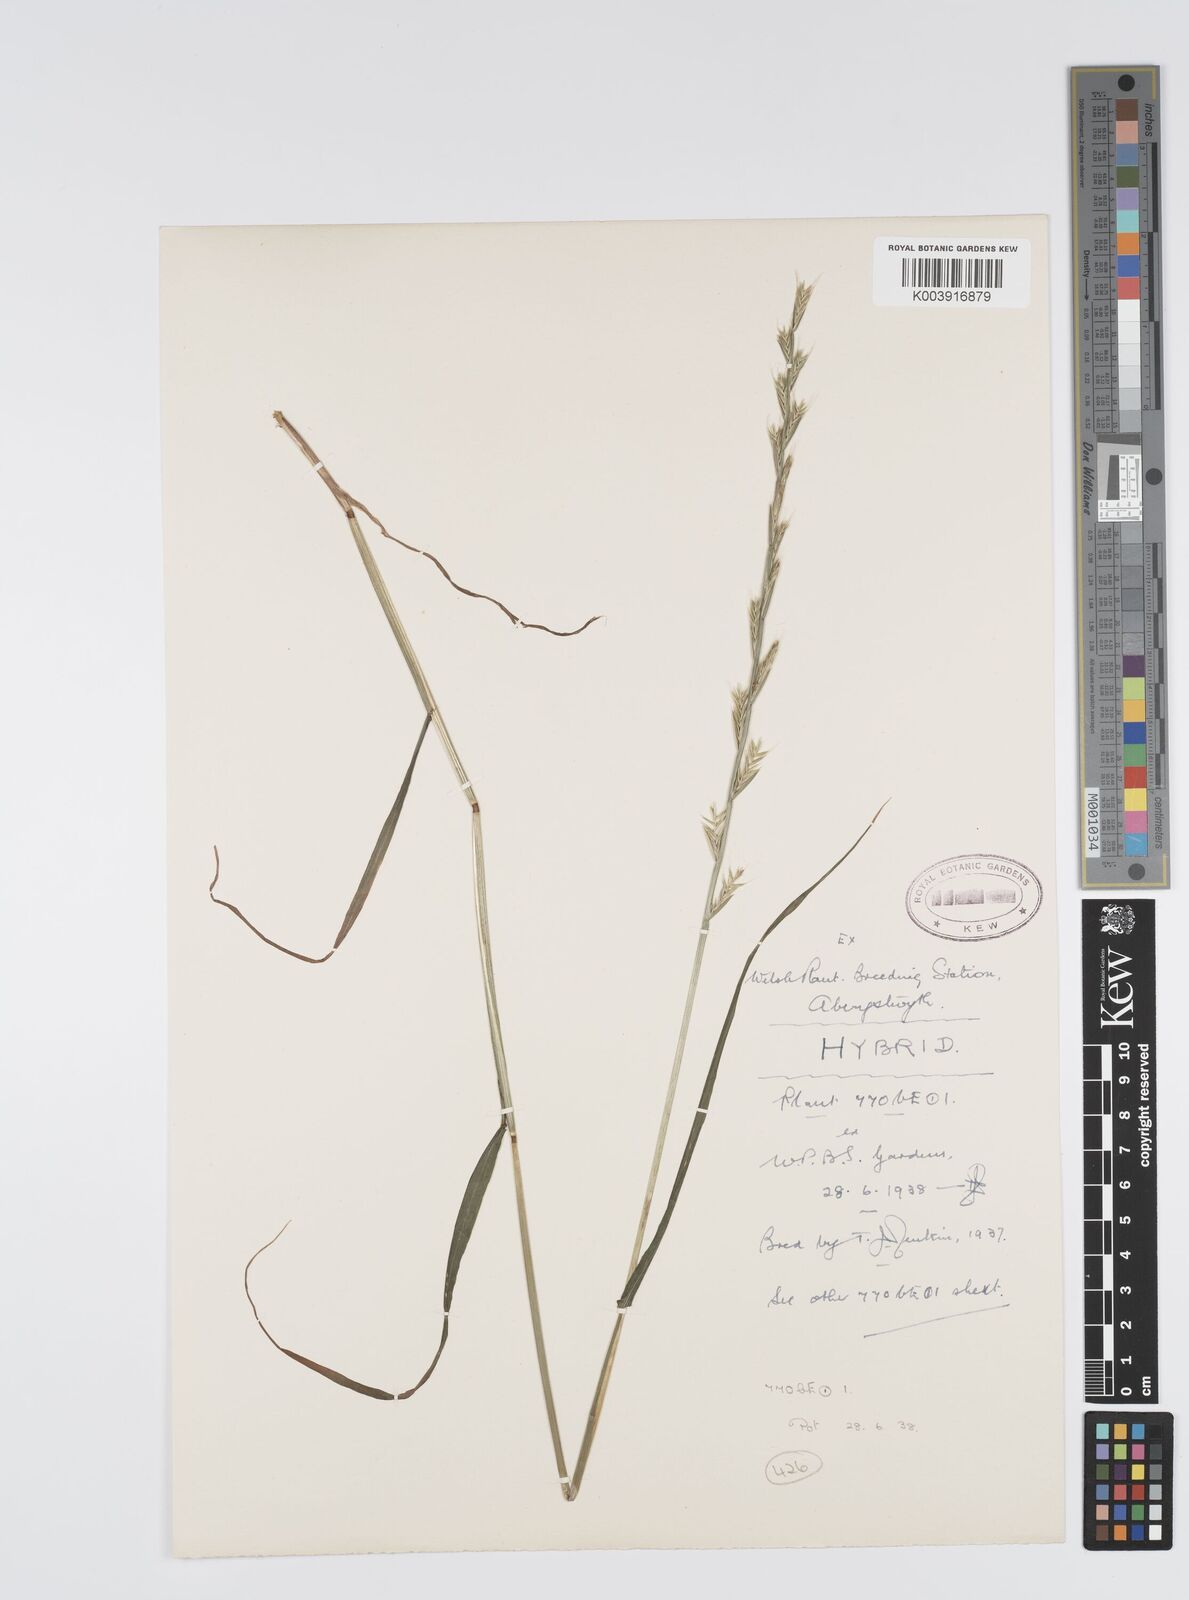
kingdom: Plantae
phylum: Tracheophyta
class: Liliopsida
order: Poales
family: Poaceae
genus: Lolium
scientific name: Lolium multiflorum
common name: Annual ryegrass
